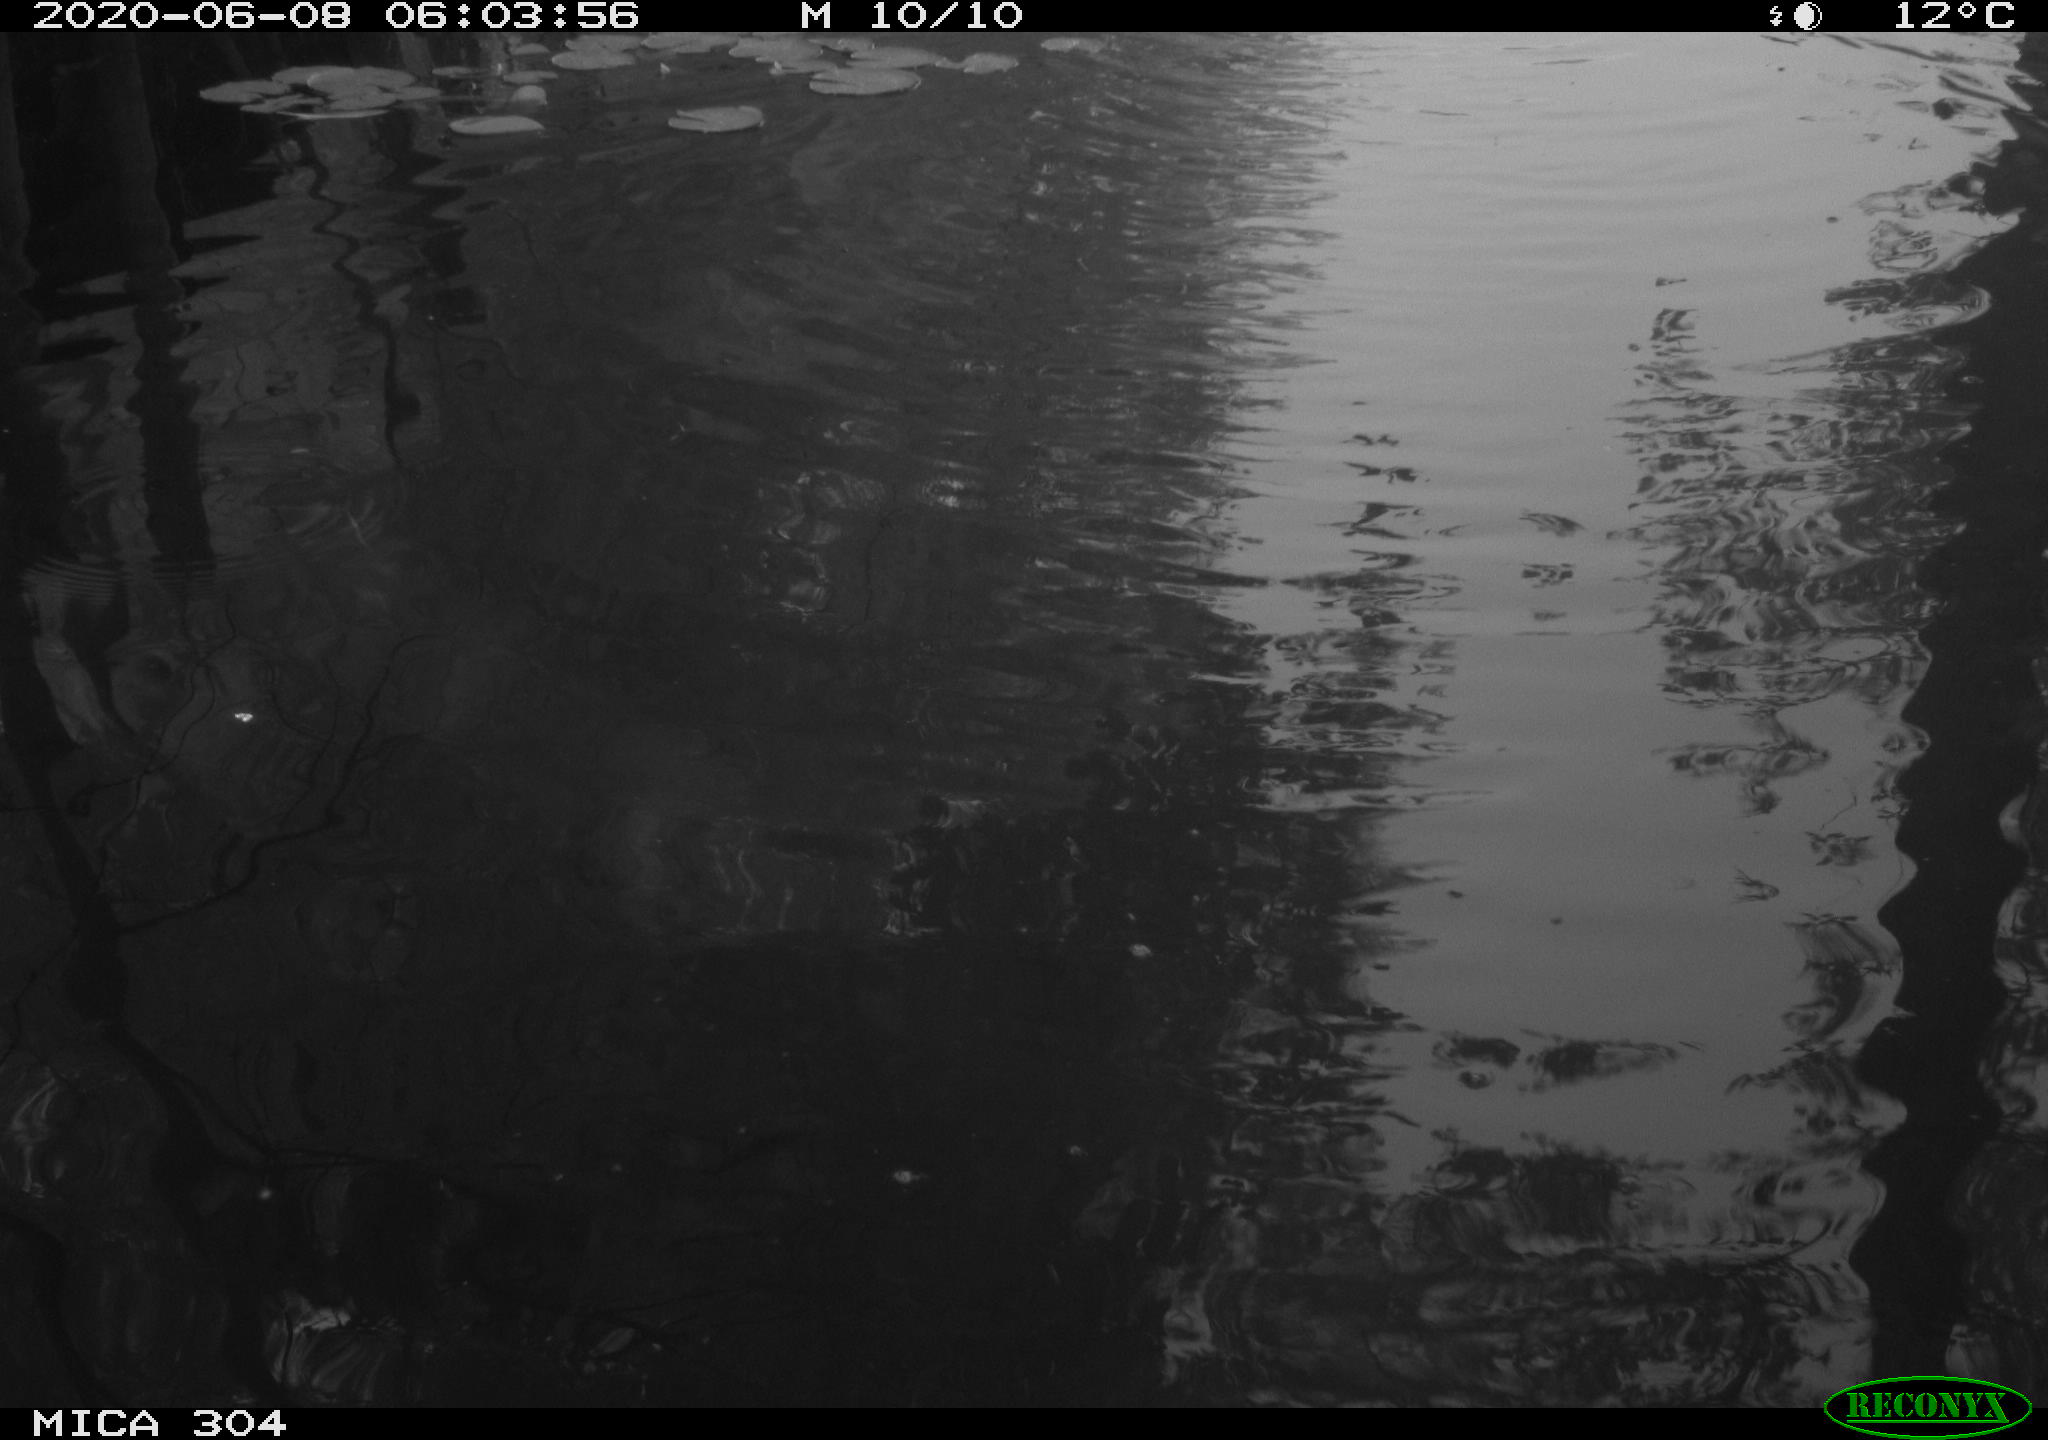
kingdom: Animalia
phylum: Chordata
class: Mammalia
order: Rodentia
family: Cricetidae
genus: Ondatra
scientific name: Ondatra zibethicus
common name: Muskrat
